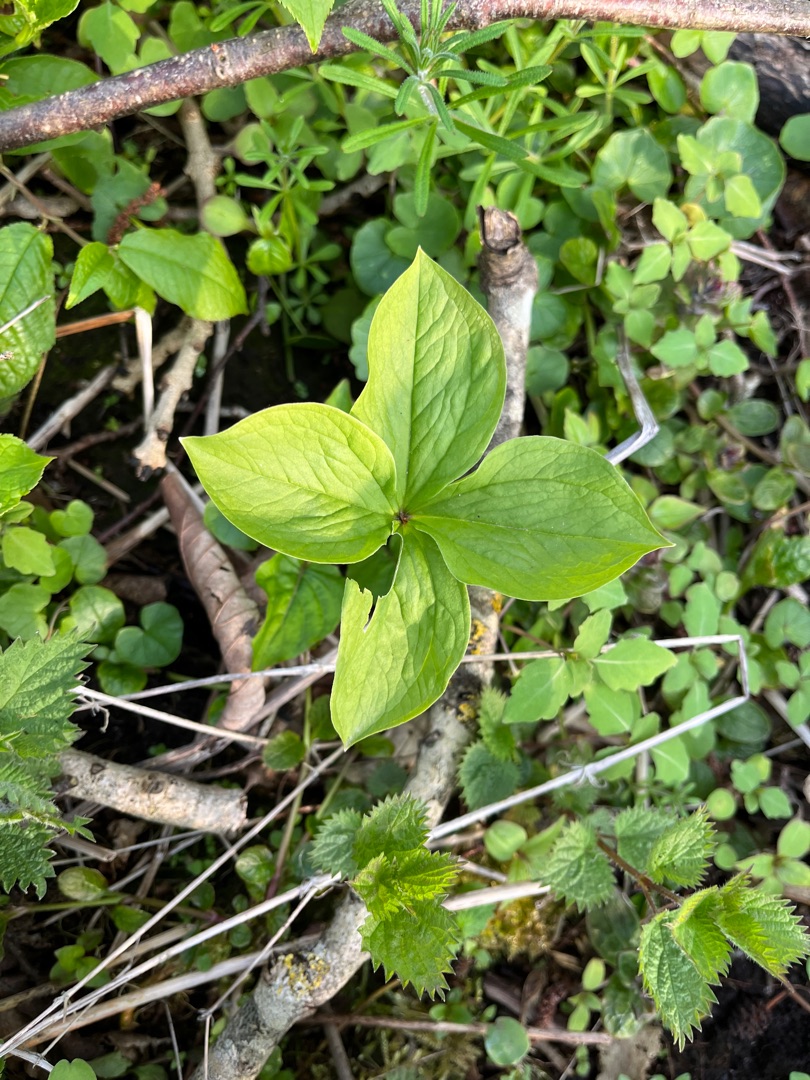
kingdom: Plantae
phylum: Tracheophyta
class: Liliopsida
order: Liliales
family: Melanthiaceae
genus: Paris
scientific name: Paris quadrifolia
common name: Firblad
